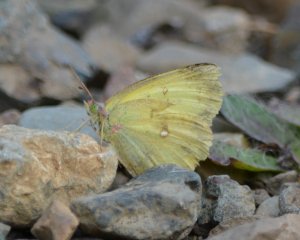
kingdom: Animalia
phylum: Arthropoda
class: Insecta
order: Lepidoptera
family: Pieridae
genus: Colias
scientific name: Colias philodice
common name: Clouded Sulphur
